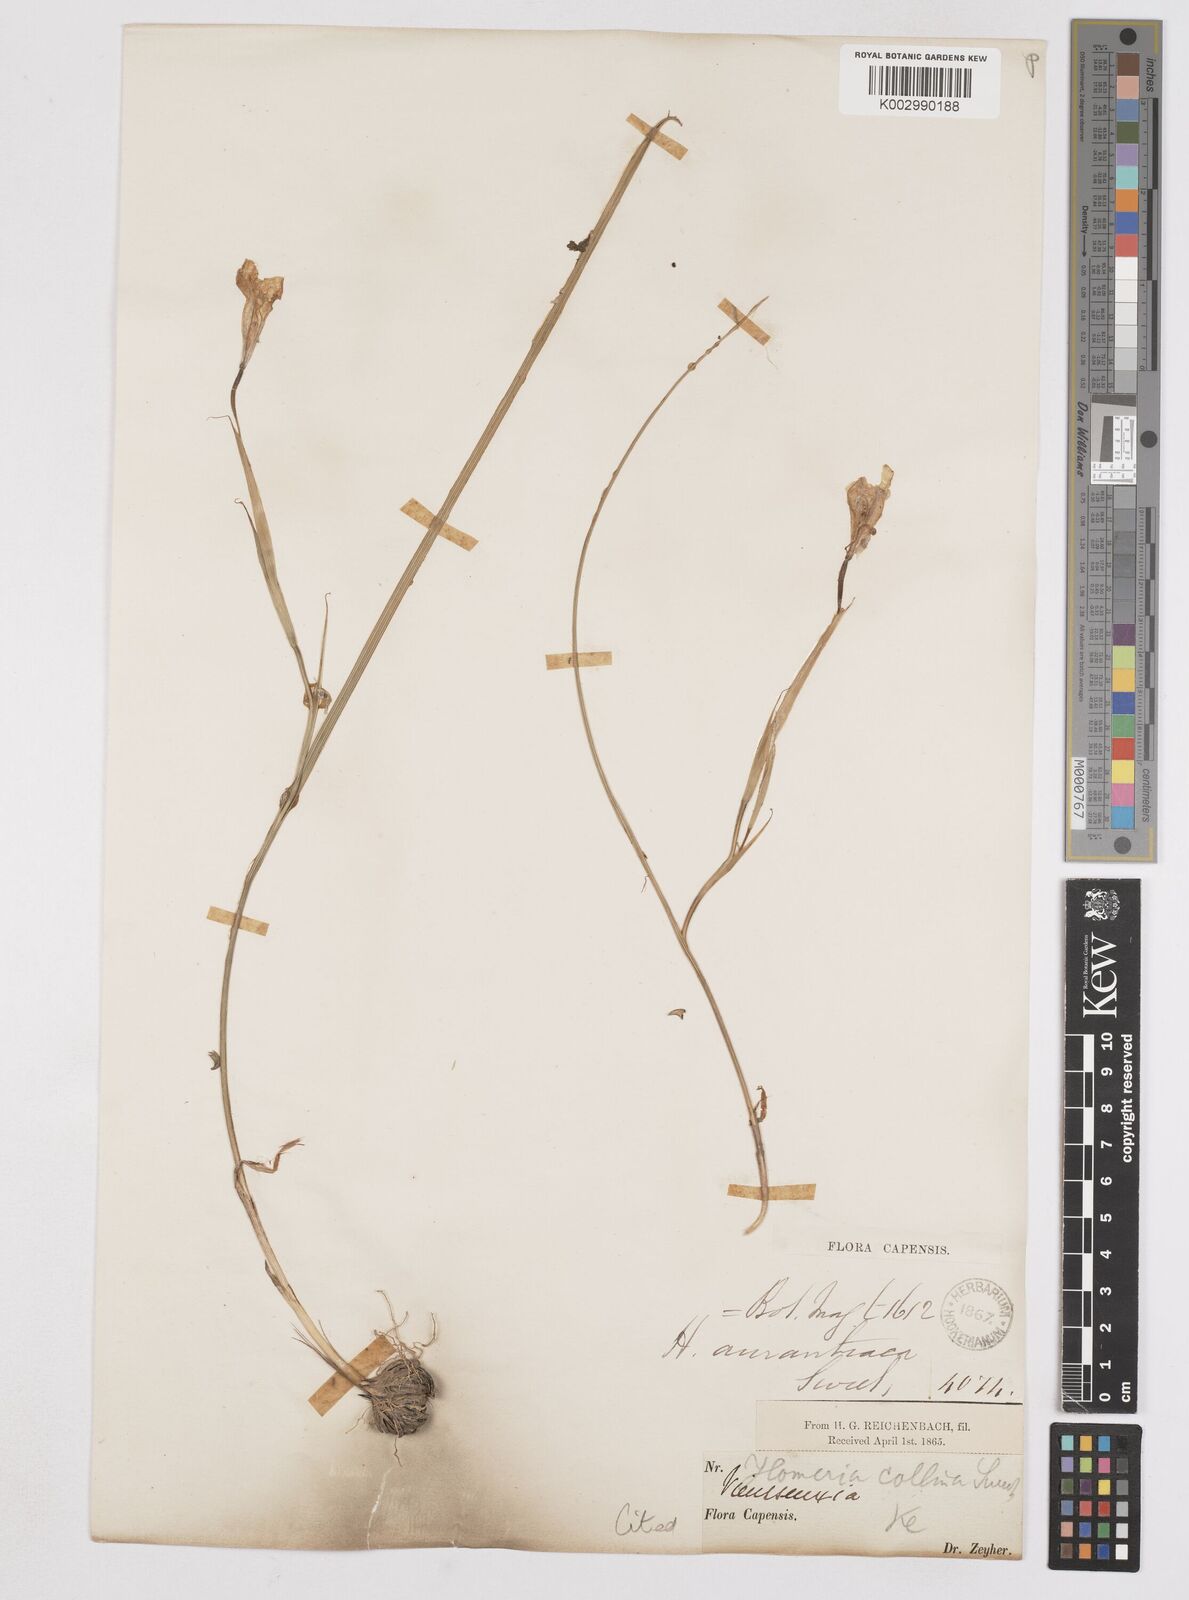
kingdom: Plantae
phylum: Tracheophyta
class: Liliopsida
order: Asparagales
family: Iridaceae
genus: Moraea
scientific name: Moraea longistyla
